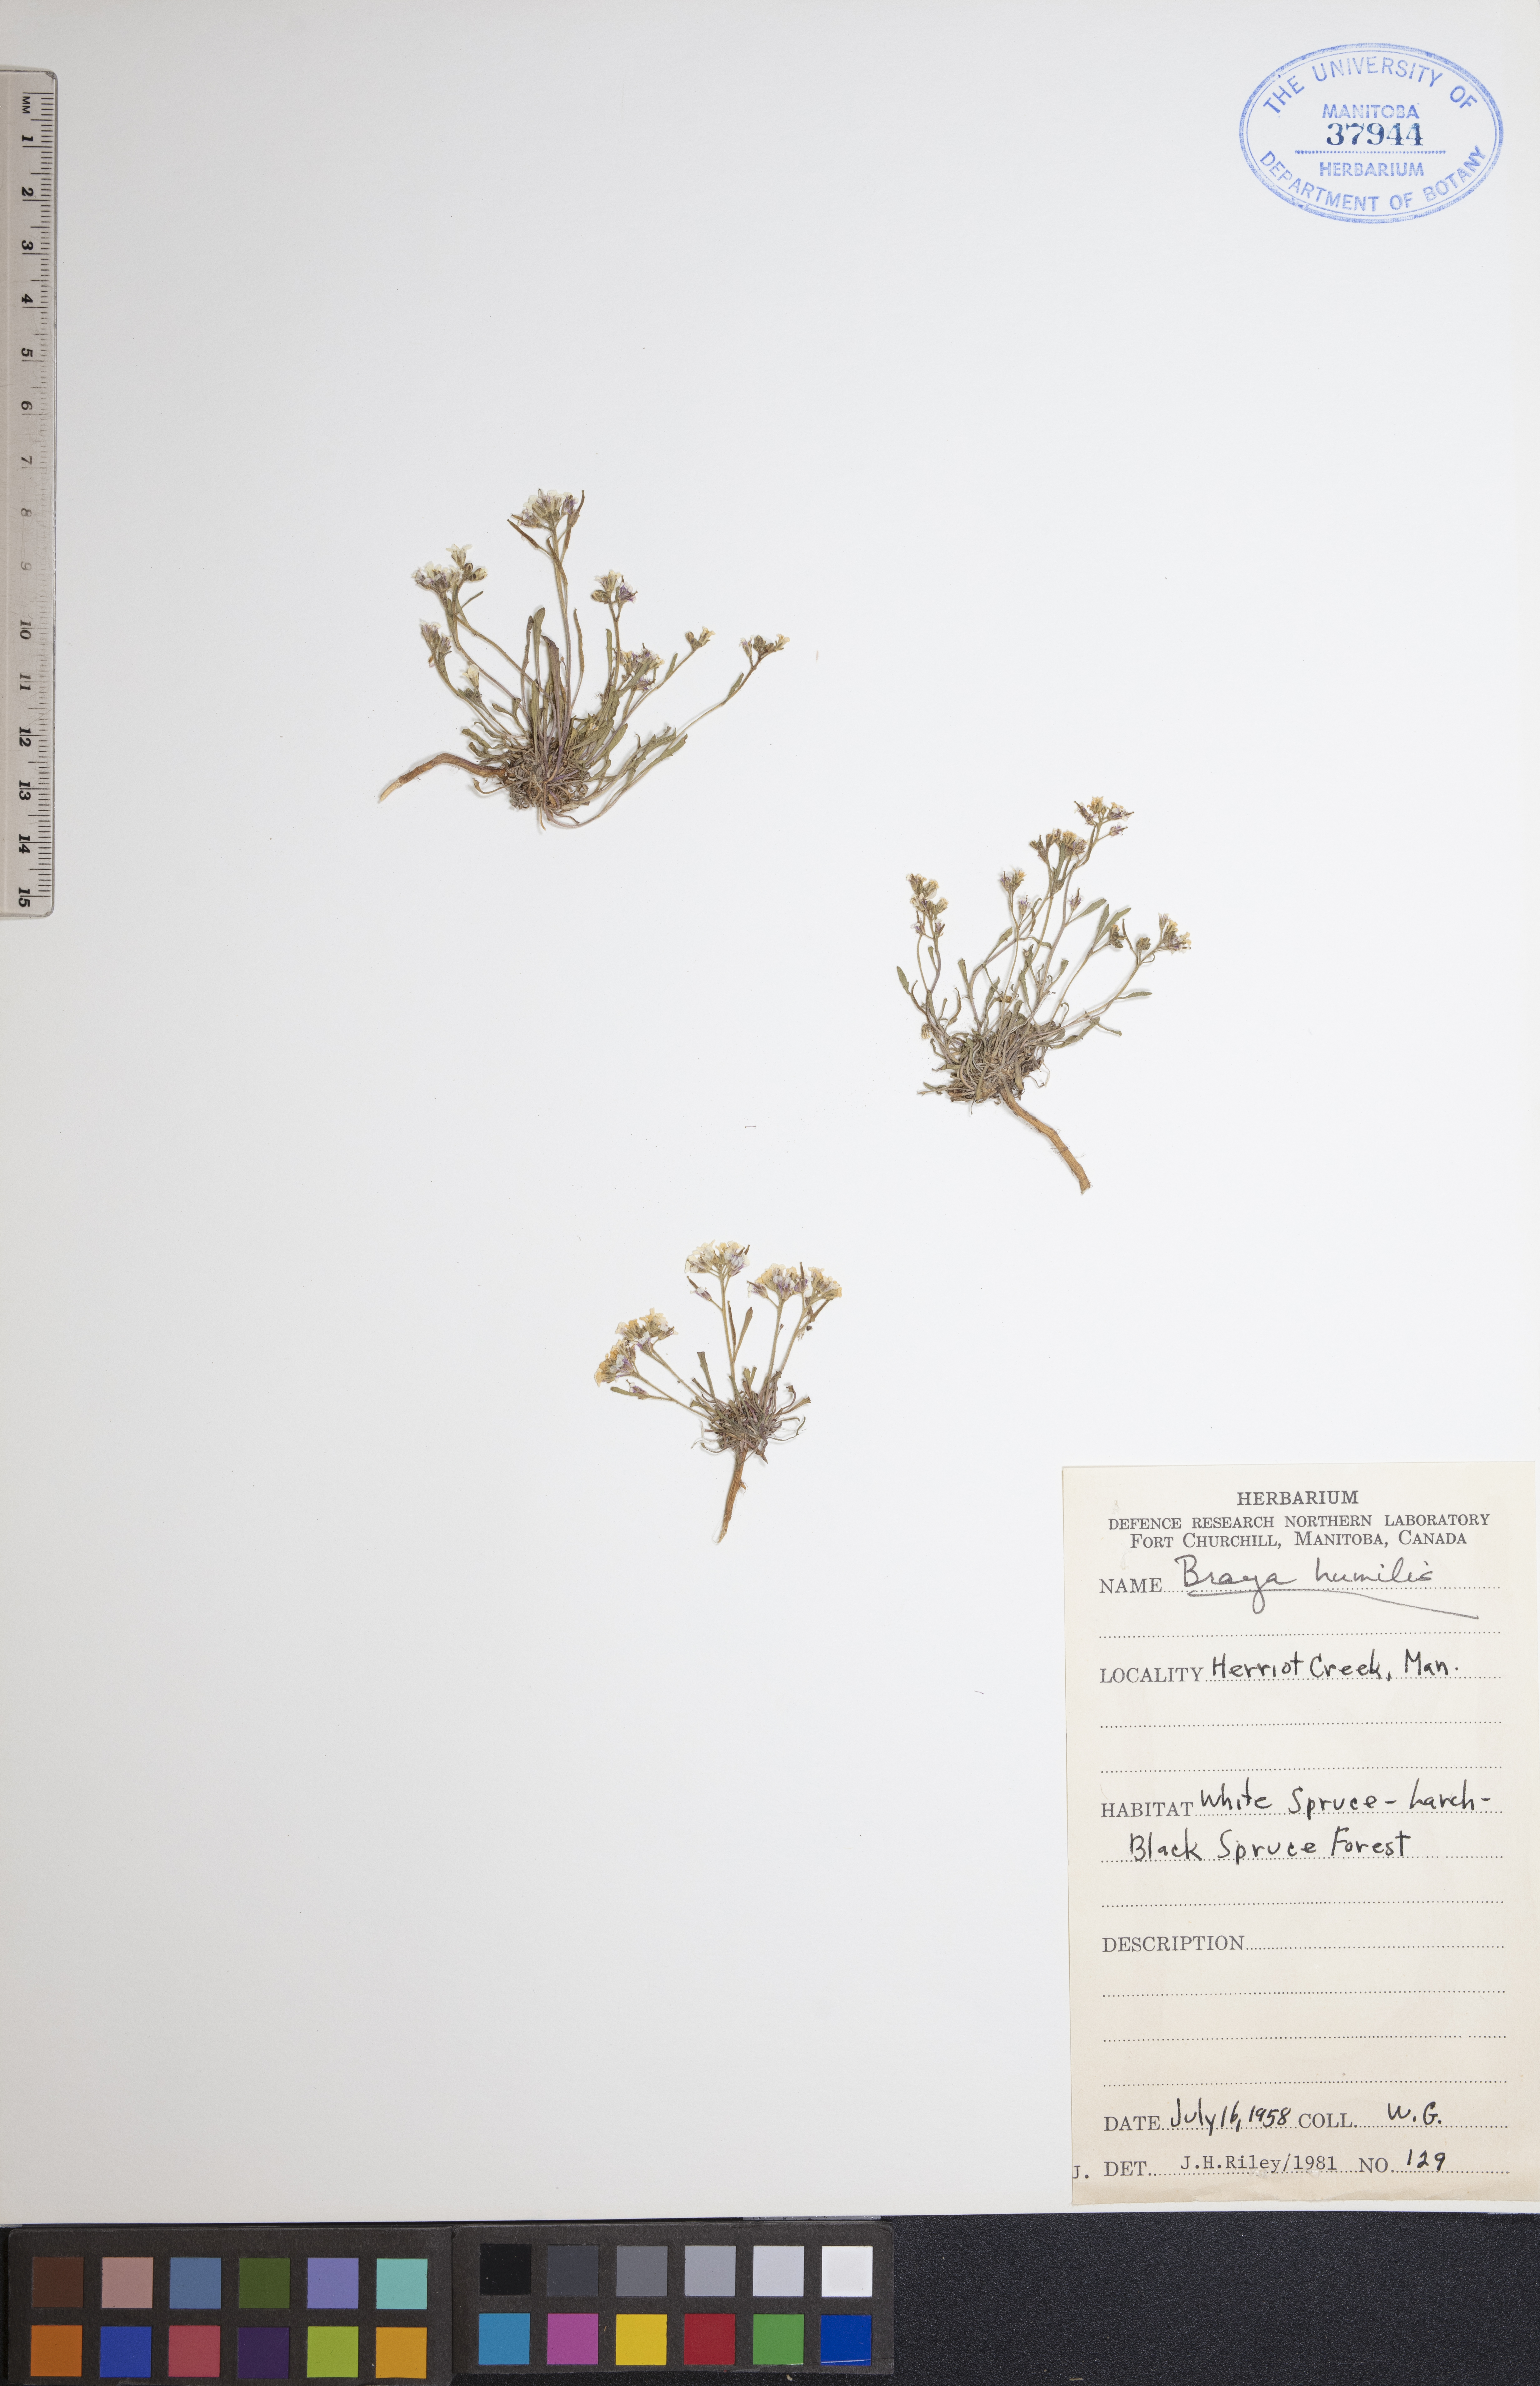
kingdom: Plantae
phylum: Tracheophyta
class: Magnoliopsida
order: Brassicales
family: Brassicaceae
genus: Braya
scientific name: Braya humilis
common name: Alpine northern rockcress
